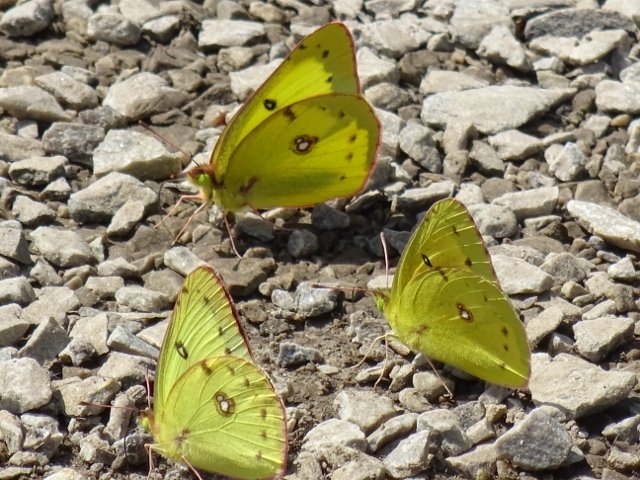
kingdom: Animalia
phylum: Arthropoda
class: Insecta
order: Lepidoptera
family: Pieridae
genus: Colias
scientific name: Colias philodice
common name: Clouded Sulphur
